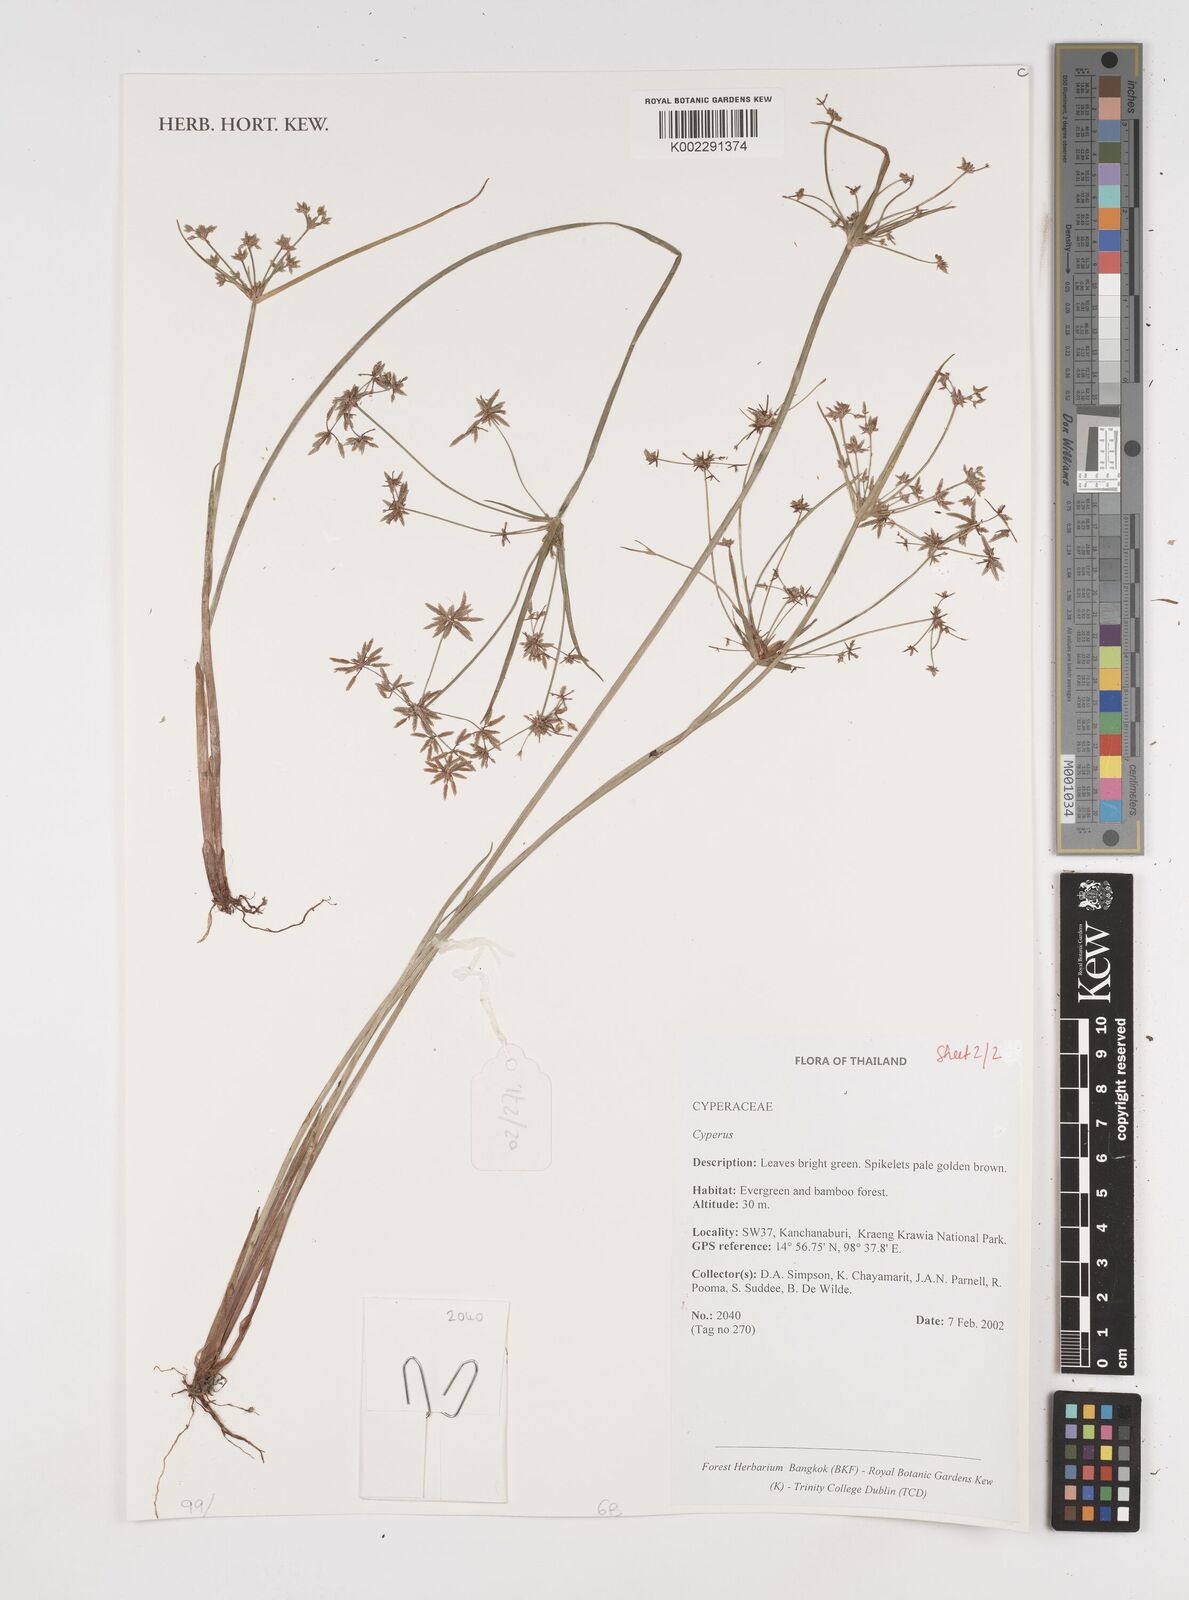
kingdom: Plantae
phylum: Tracheophyta
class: Liliopsida
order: Poales
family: Cyperaceae
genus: Cyperus
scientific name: Cyperus
